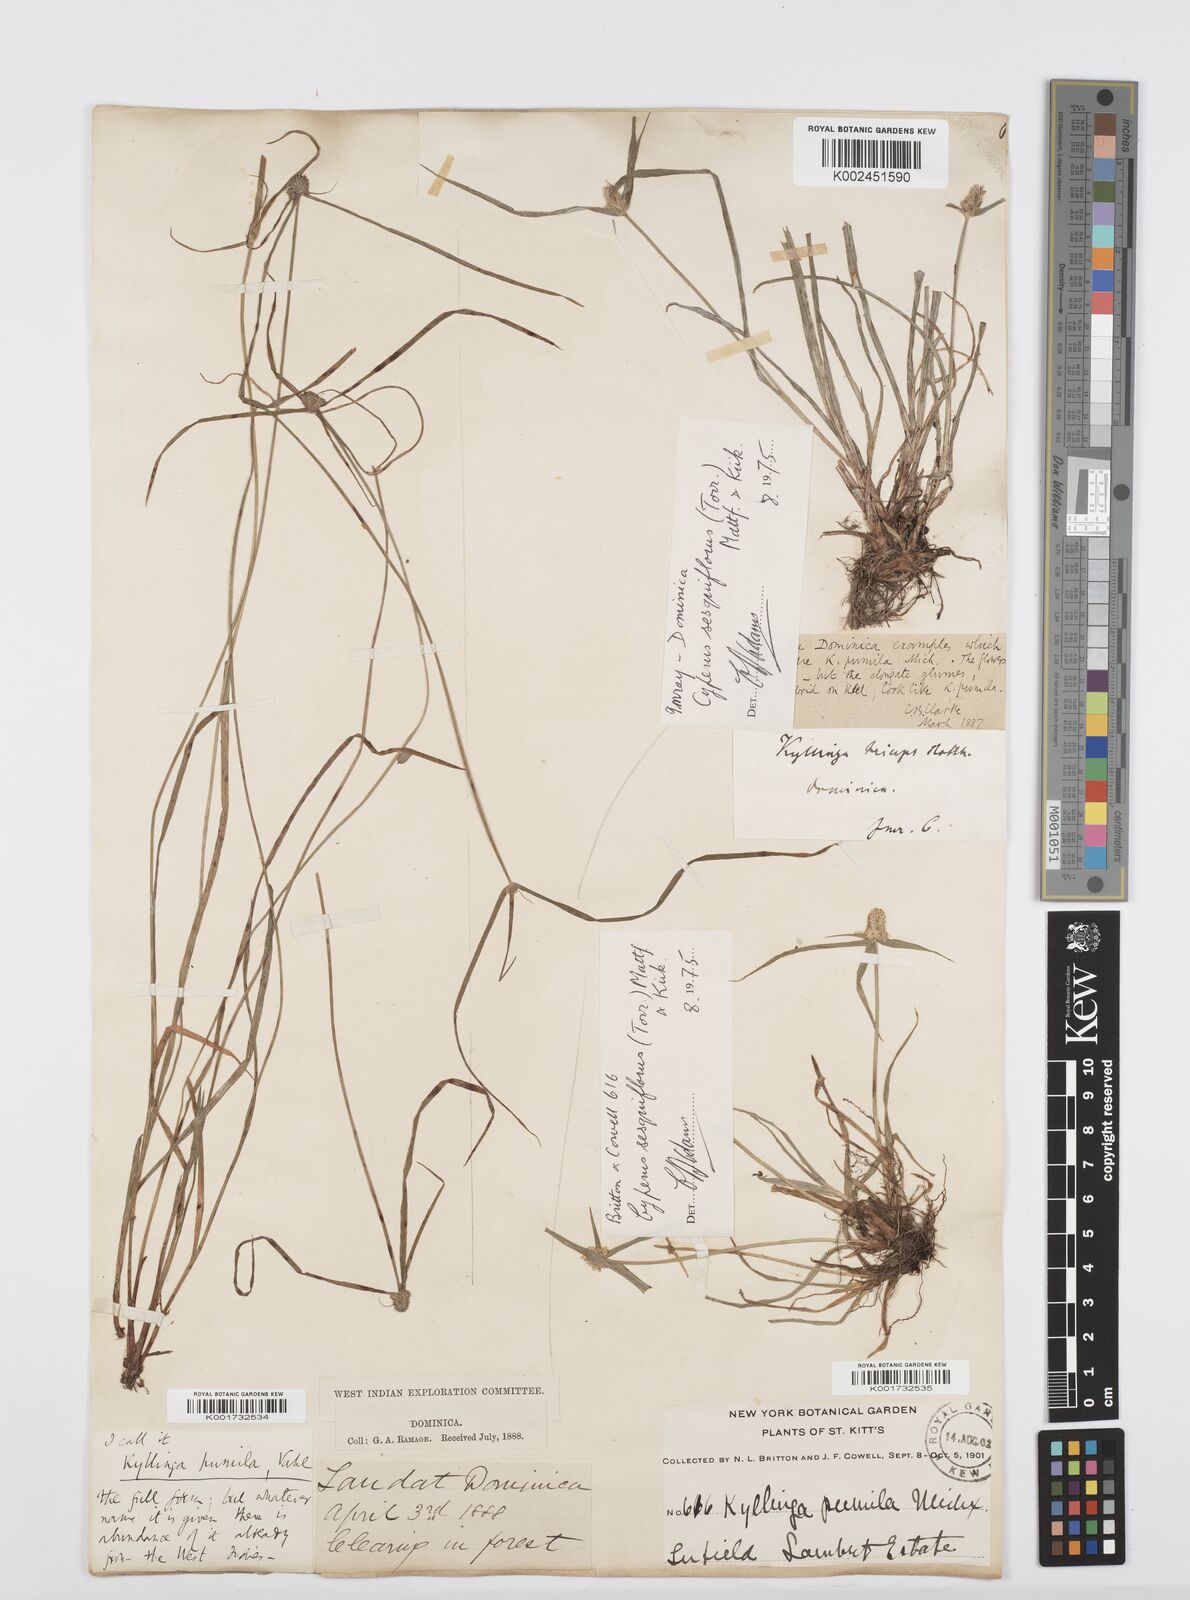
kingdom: Plantae
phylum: Tracheophyta
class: Liliopsida
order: Poales
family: Cyperaceae
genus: Cyperus
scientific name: Cyperus
